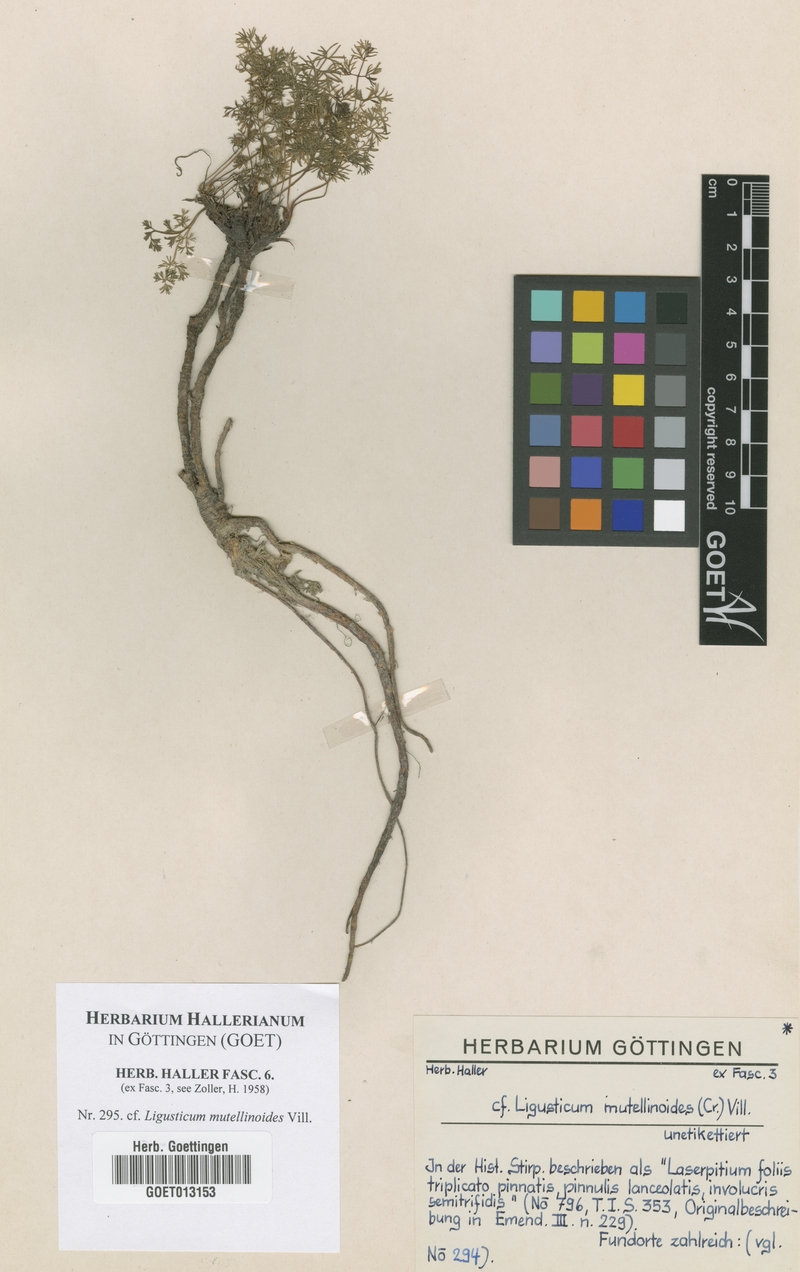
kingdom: Plantae
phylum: Tracheophyta
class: Magnoliopsida
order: Apiales
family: Apiaceae
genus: Pachypleurum
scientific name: Pachypleurum mutellinoides
